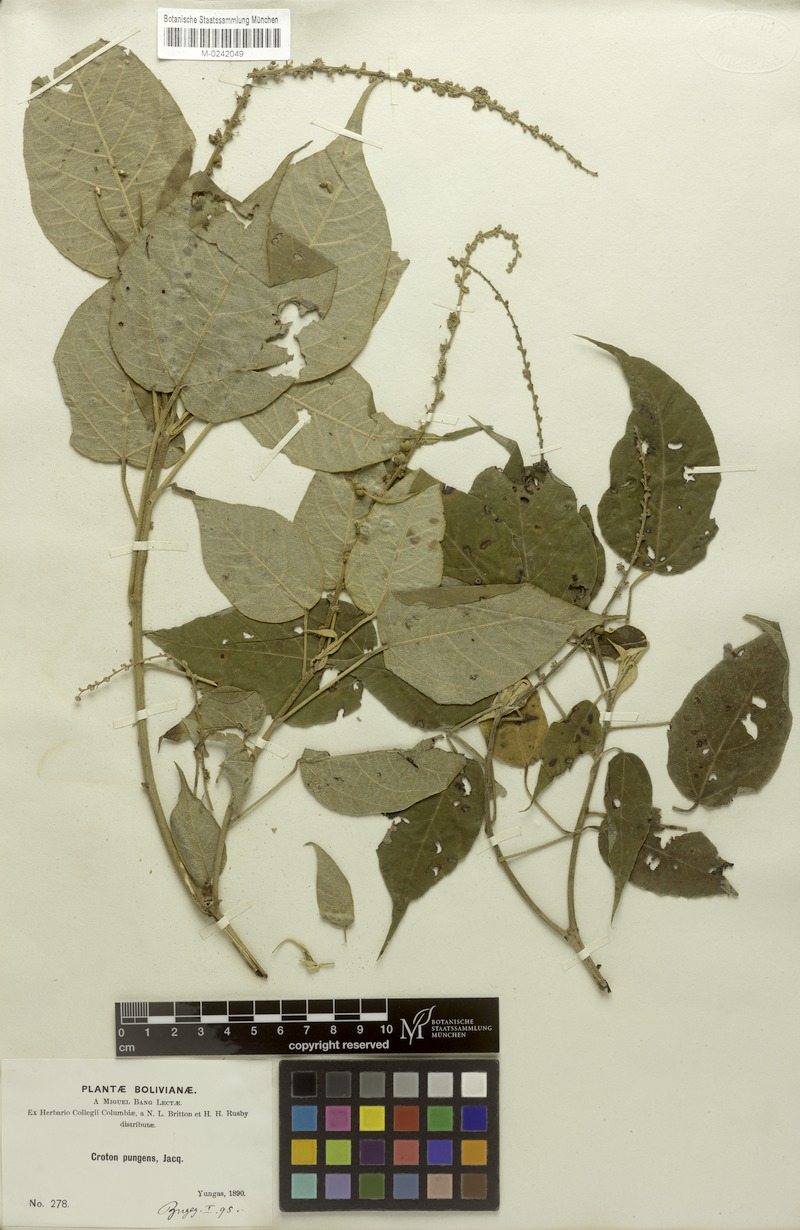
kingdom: Plantae
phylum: Tracheophyta
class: Magnoliopsida
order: Malpighiales
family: Euphorbiaceae
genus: Croton
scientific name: Croton yungensis
